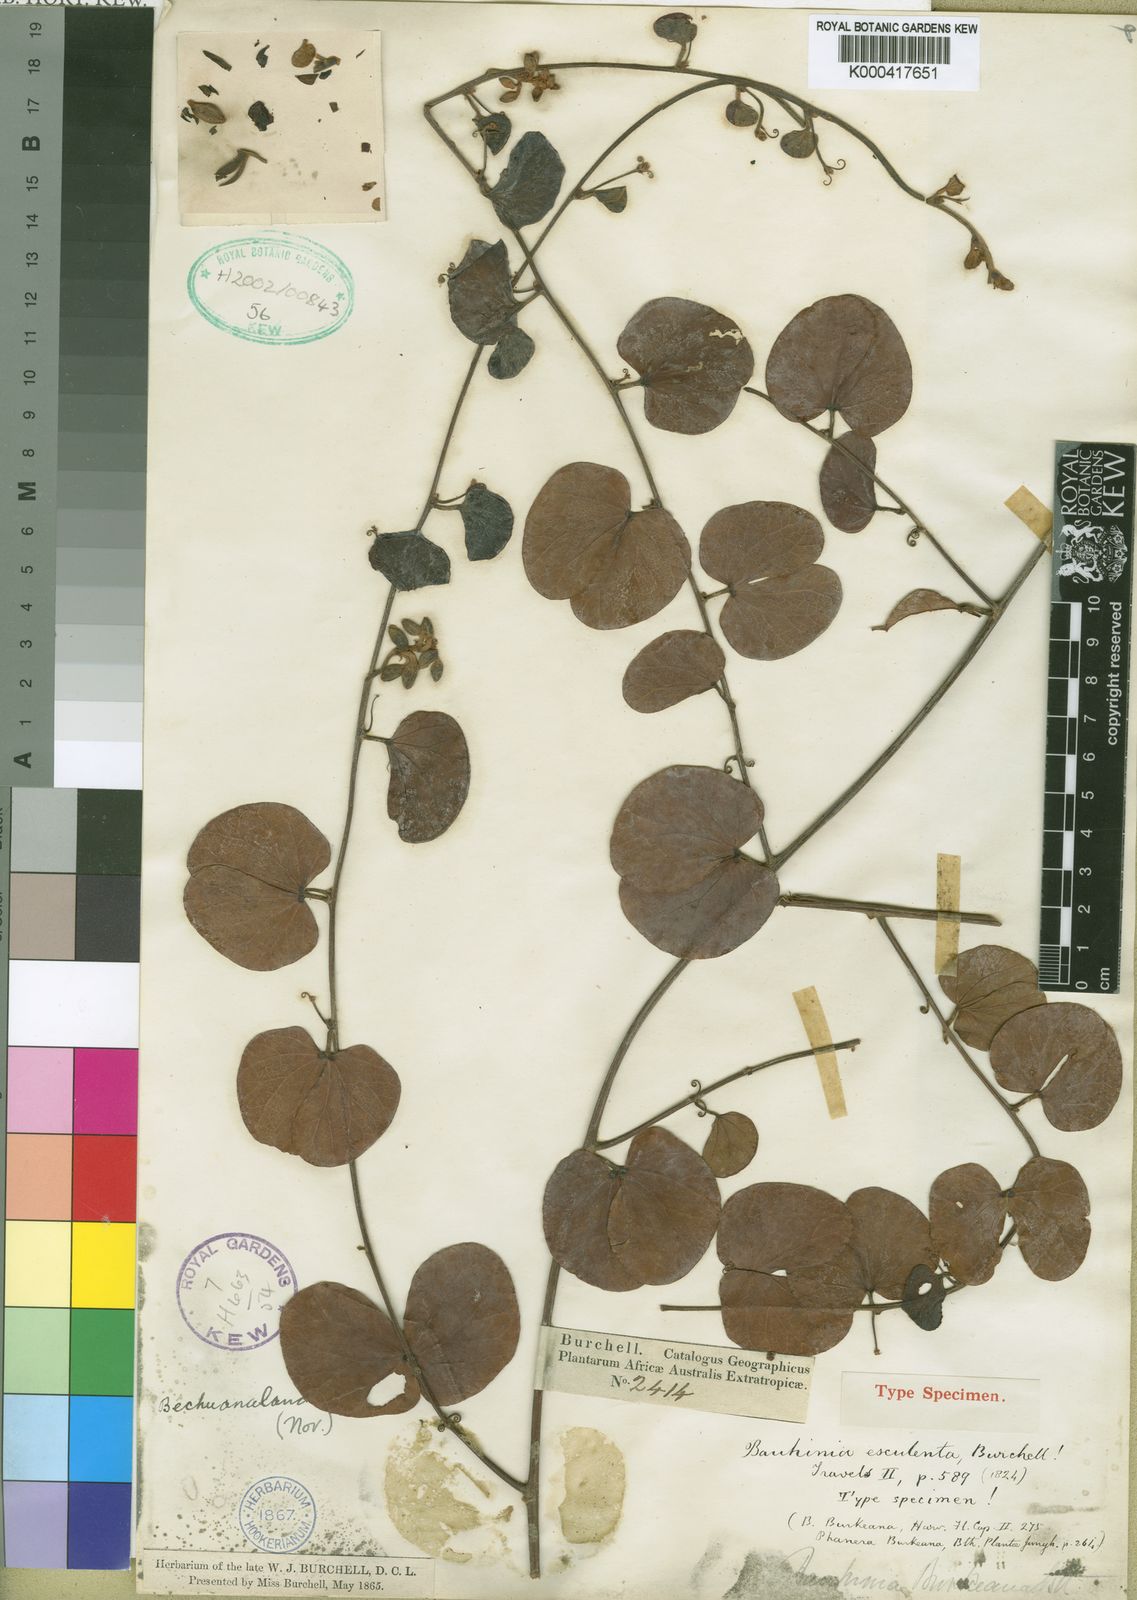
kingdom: Plantae
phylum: Tracheophyta
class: Magnoliopsida
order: Fabales
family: Fabaceae
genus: Tylosema
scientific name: Tylosema
